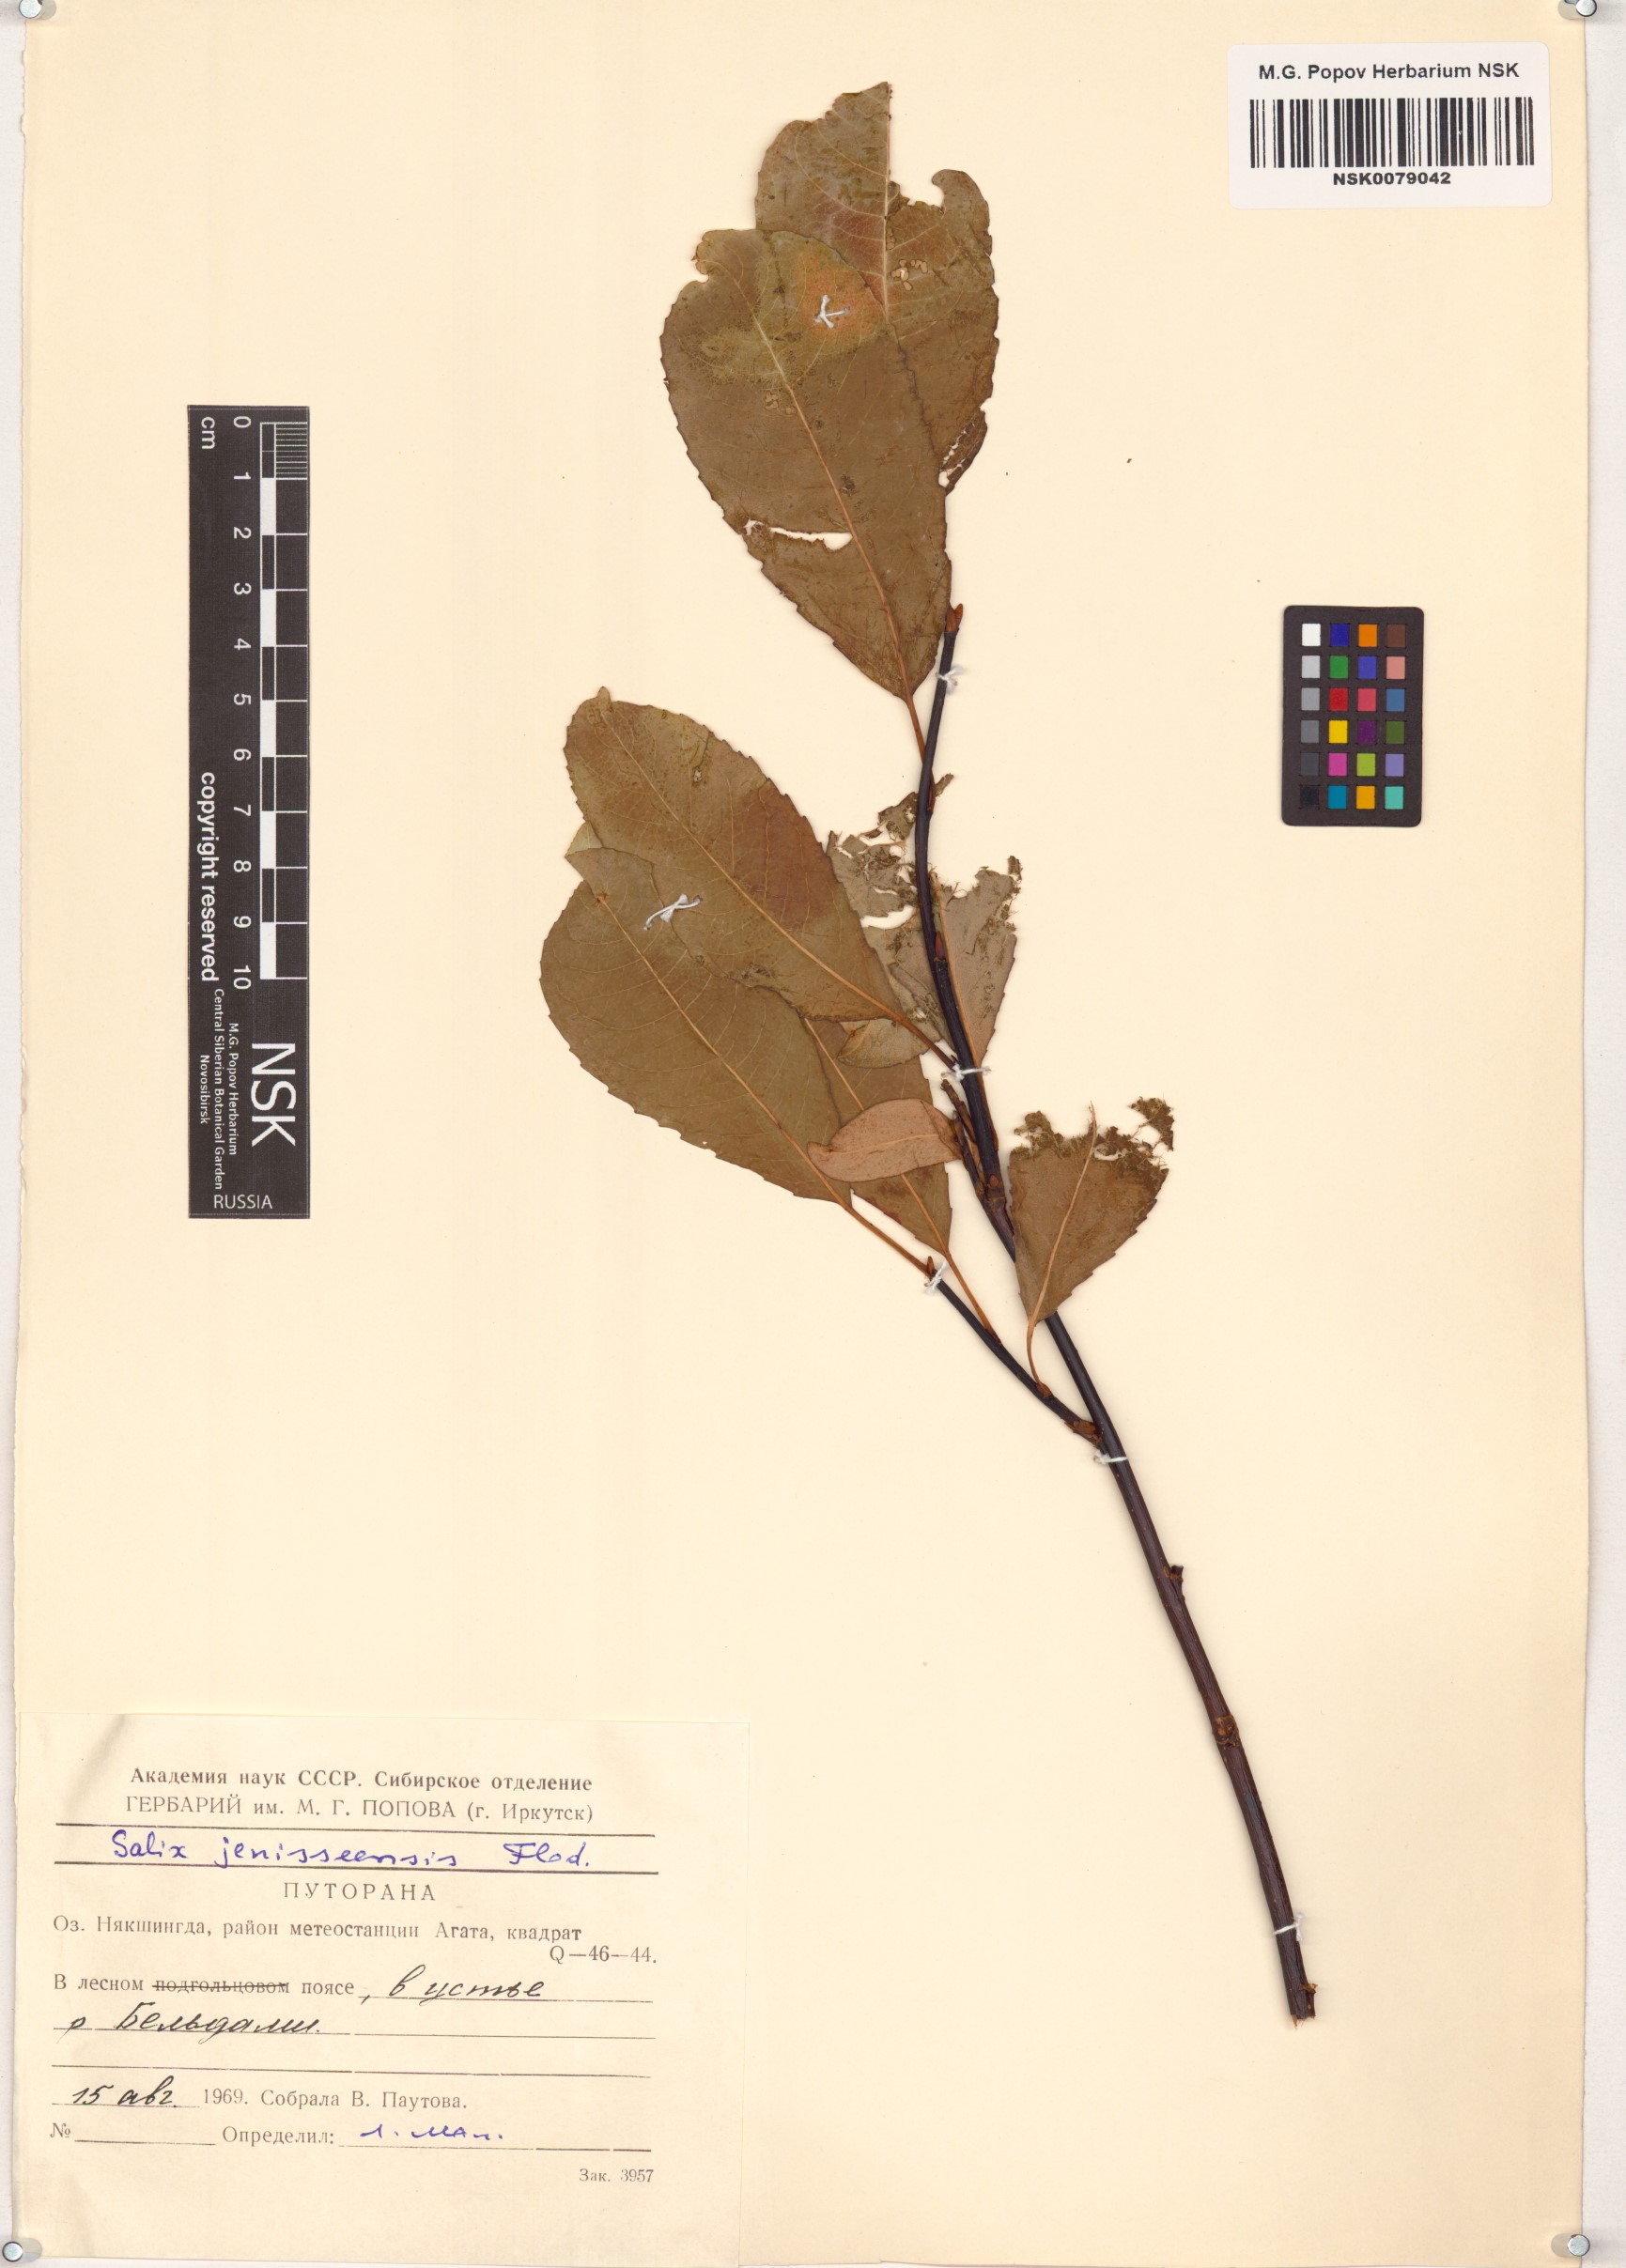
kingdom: Plantae
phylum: Tracheophyta
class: Magnoliopsida
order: Malpighiales
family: Salicaceae
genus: Salix
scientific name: Salix jenisseensis
